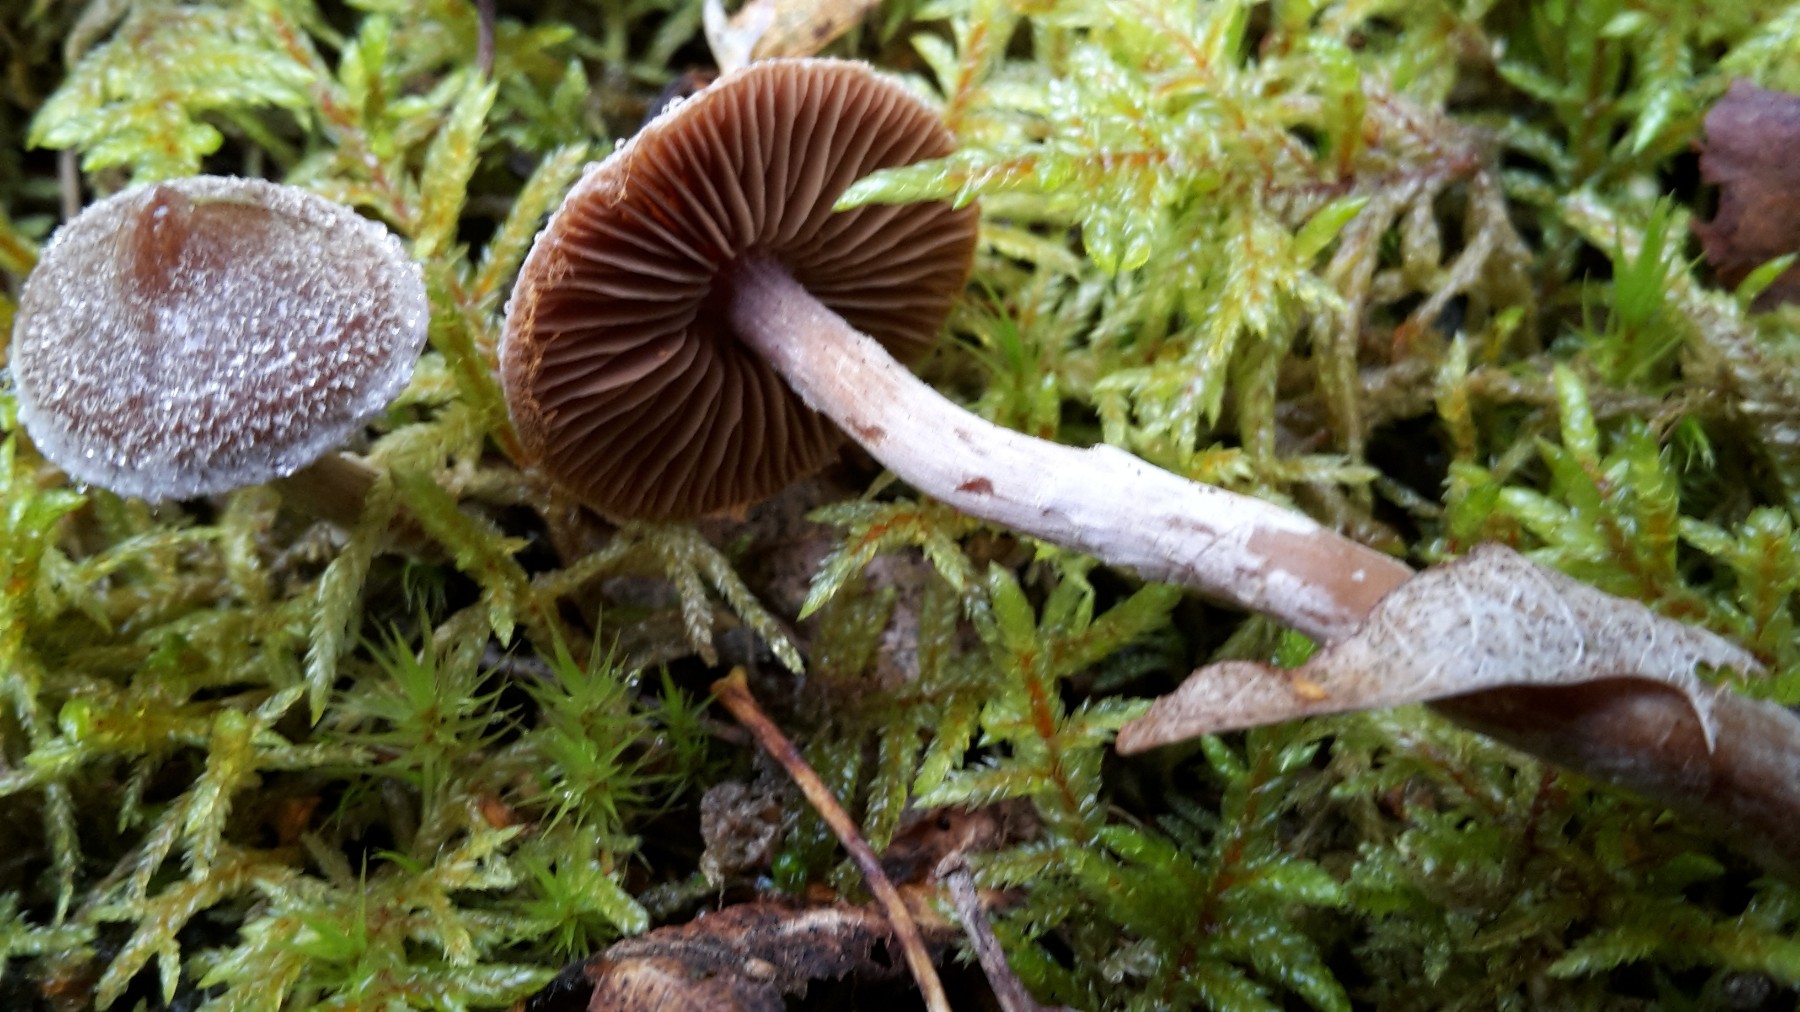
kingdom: Fungi
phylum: Basidiomycota
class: Agaricomycetes
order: Agaricales
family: Cortinariaceae
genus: Cortinarius
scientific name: Cortinarius
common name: pelargonie-slørhat
